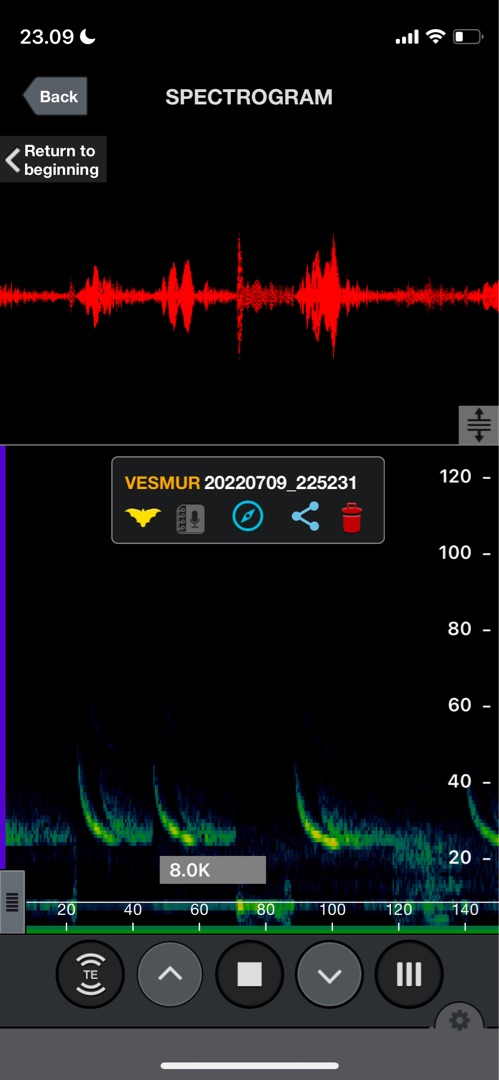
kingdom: Animalia
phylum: Chordata
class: Mammalia
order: Chiroptera
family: Vespertilionidae
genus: Vespertilio
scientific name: Vespertilio murinus
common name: Skimmelflagermus
